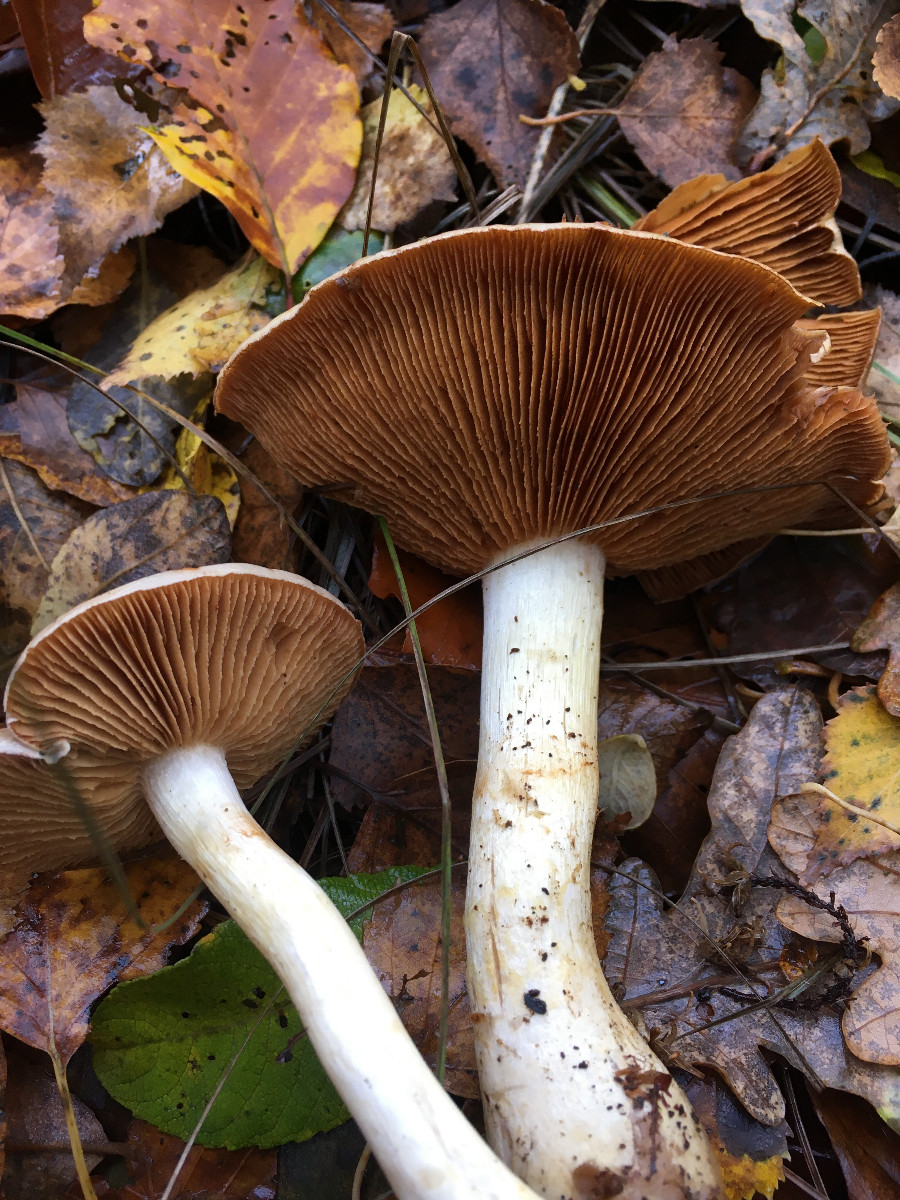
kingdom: Fungi
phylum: Basidiomycota
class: Agaricomycetes
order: Agaricales
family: Cortinariaceae
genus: Cortinarius
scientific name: Cortinarius
